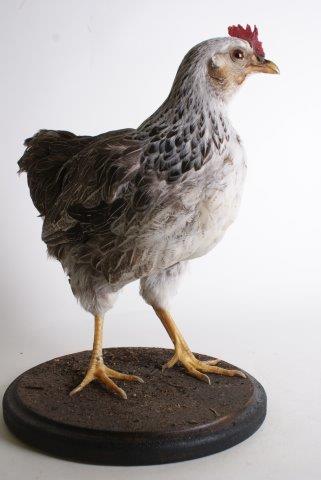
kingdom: Animalia
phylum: Chordata
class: Aves
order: Galliformes
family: Phasianidae
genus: Gallus
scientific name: Gallus gallus
